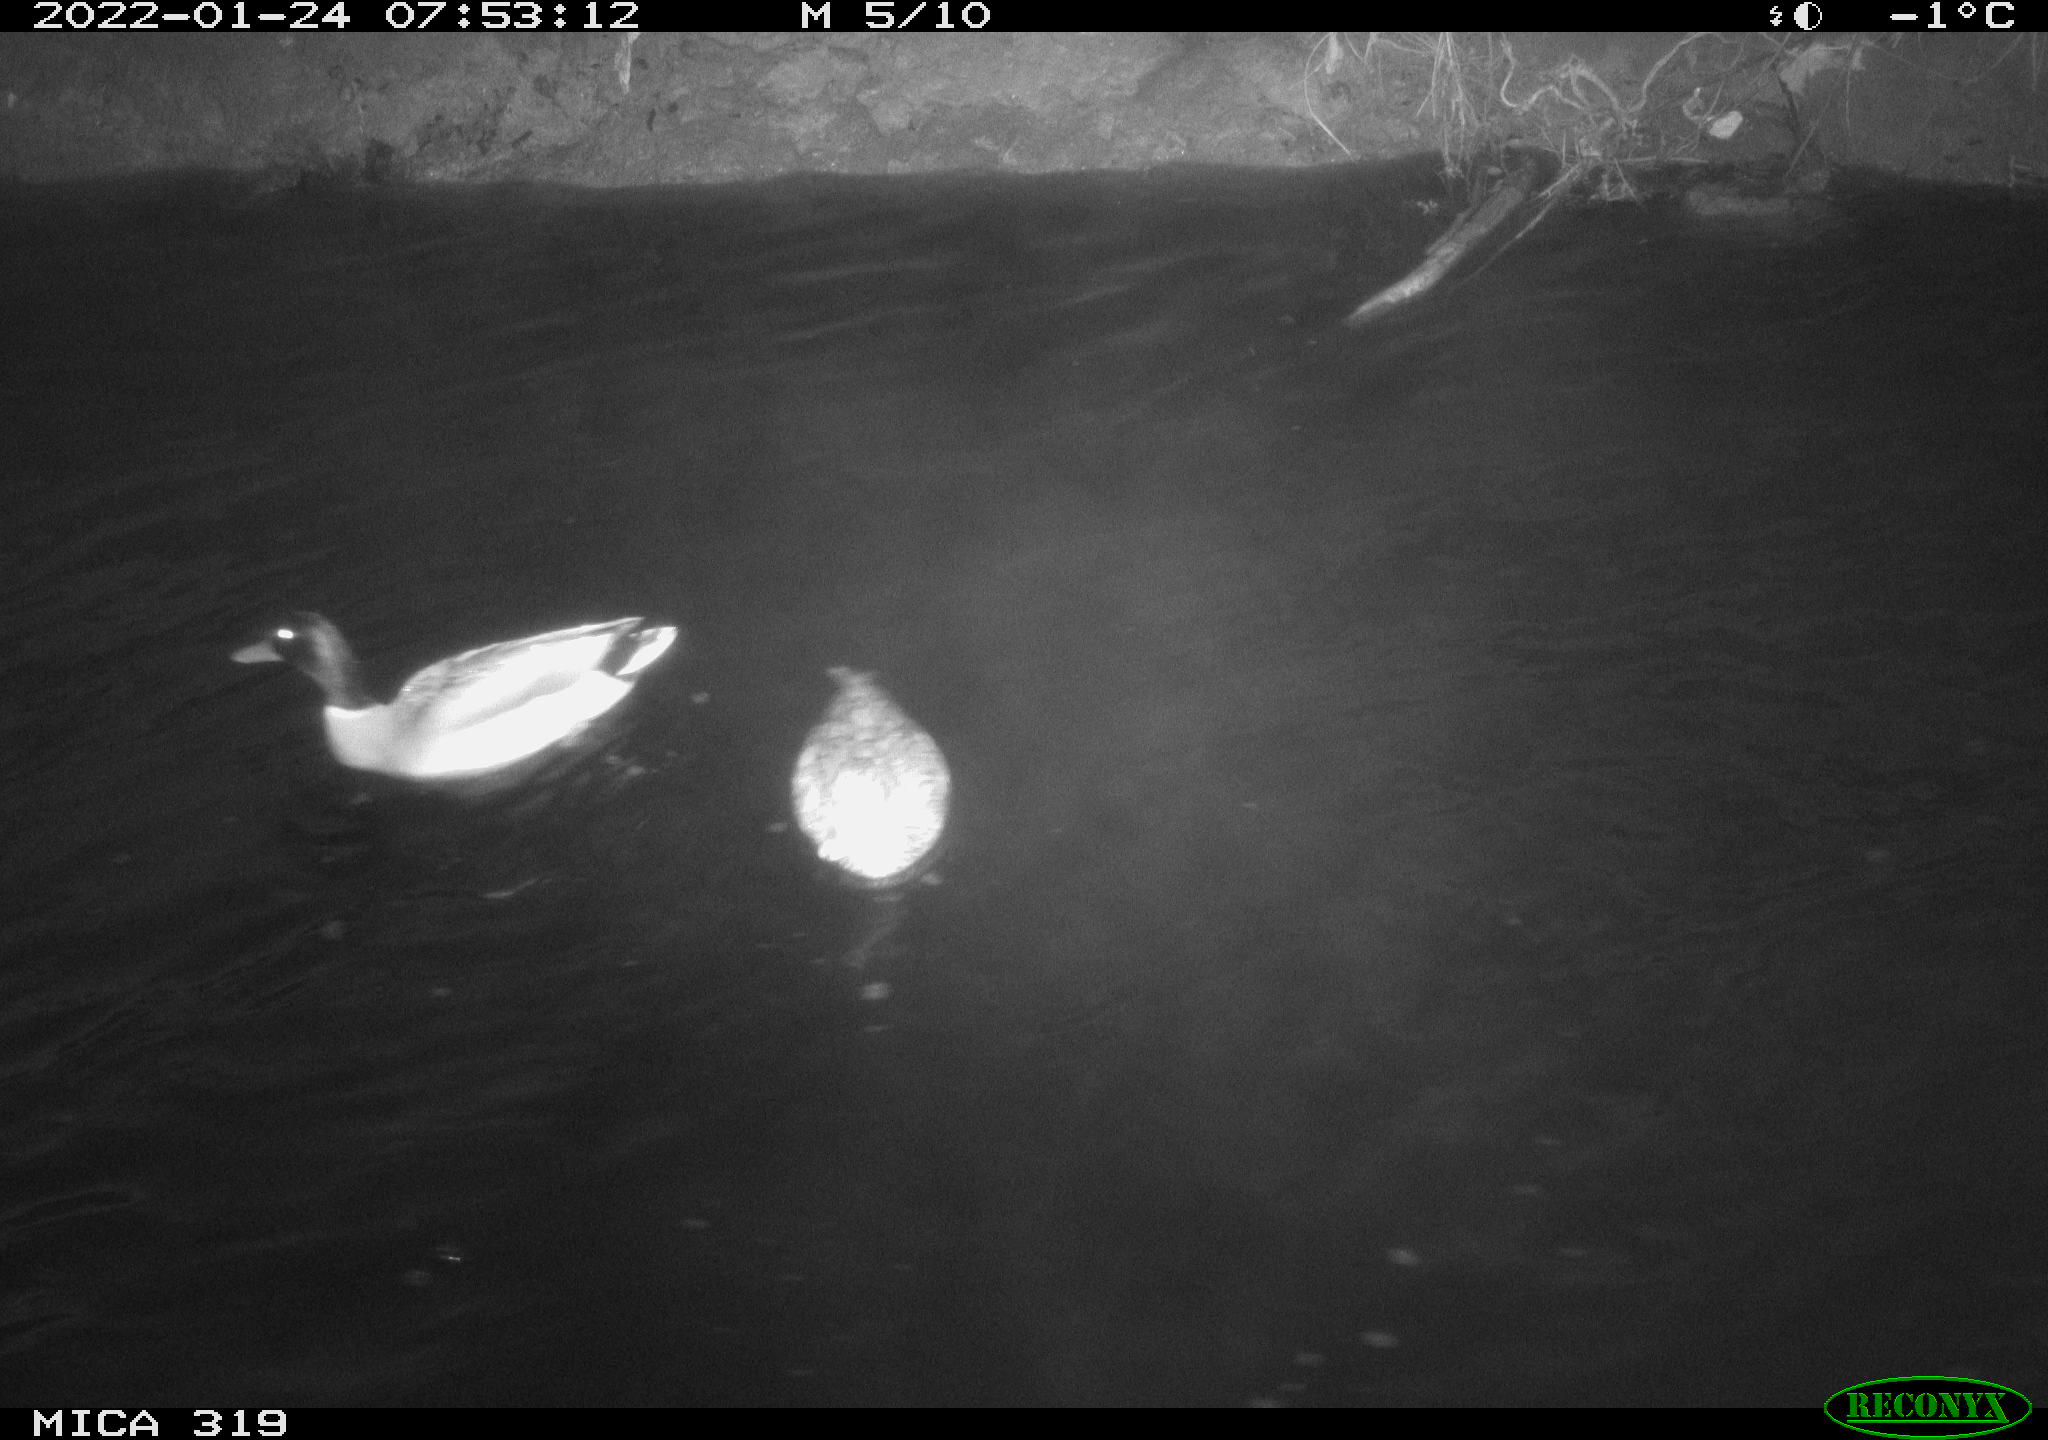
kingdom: Animalia
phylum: Chordata
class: Aves
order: Anseriformes
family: Anatidae
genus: Anas
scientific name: Anas platyrhynchos
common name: Mallard
